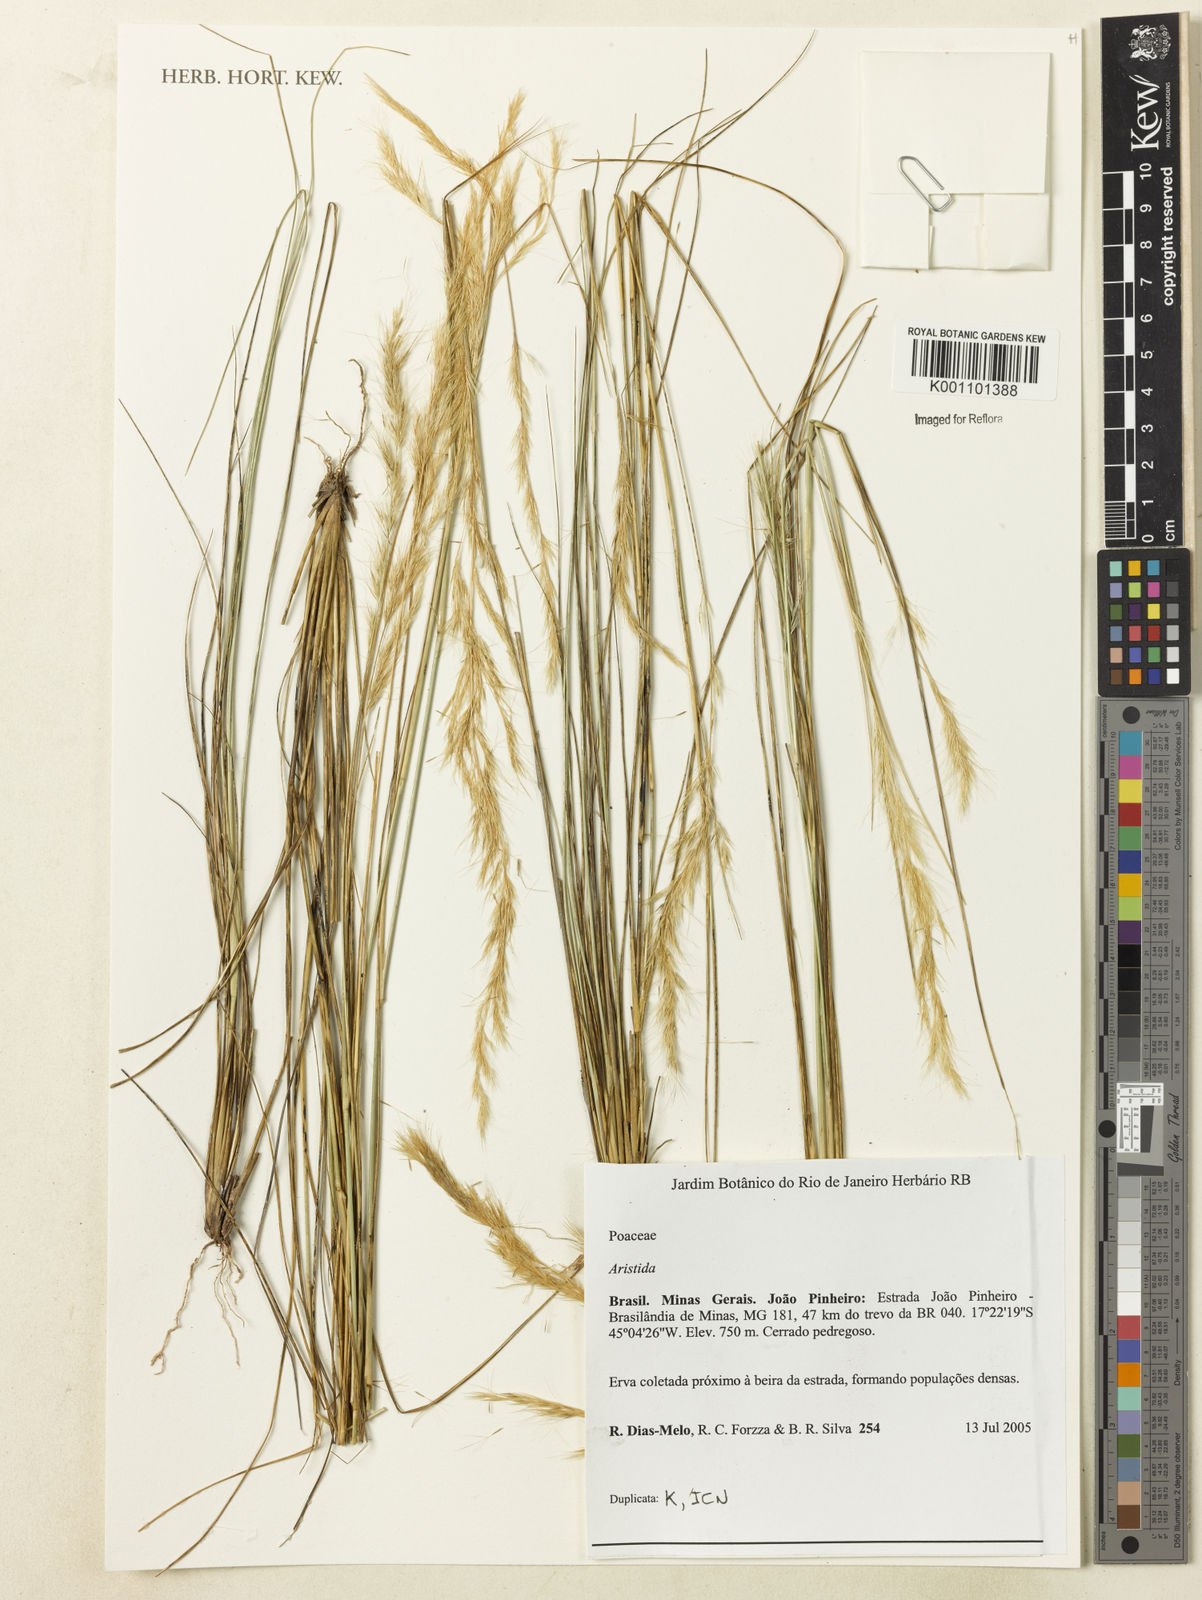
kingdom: Plantae
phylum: Tracheophyta
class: Liliopsida
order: Poales
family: Poaceae
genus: Aristida
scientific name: Aristida
